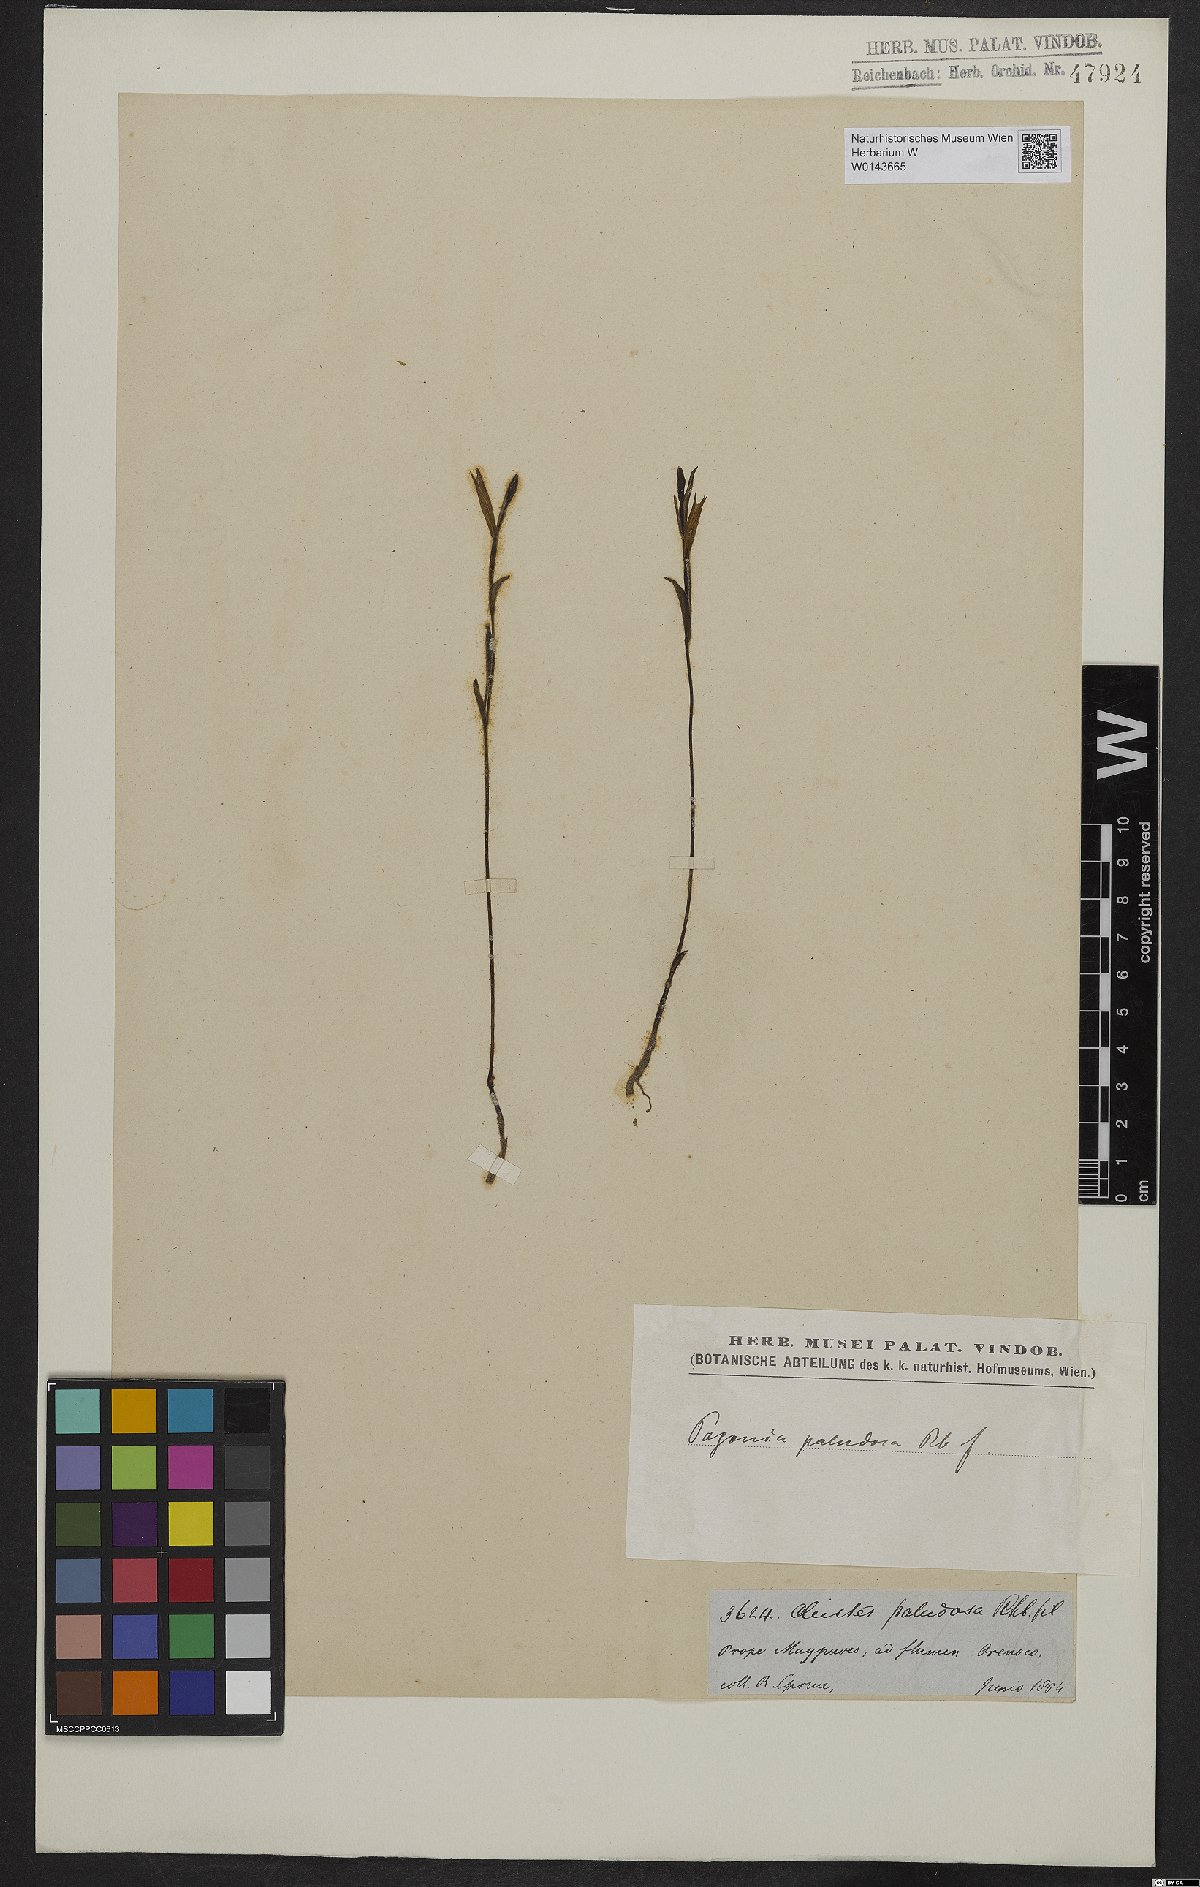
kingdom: Plantae
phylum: Tracheophyta
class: Liliopsida
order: Asparagales
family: Orchidaceae
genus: Cleistes
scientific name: Cleistes paludosa
